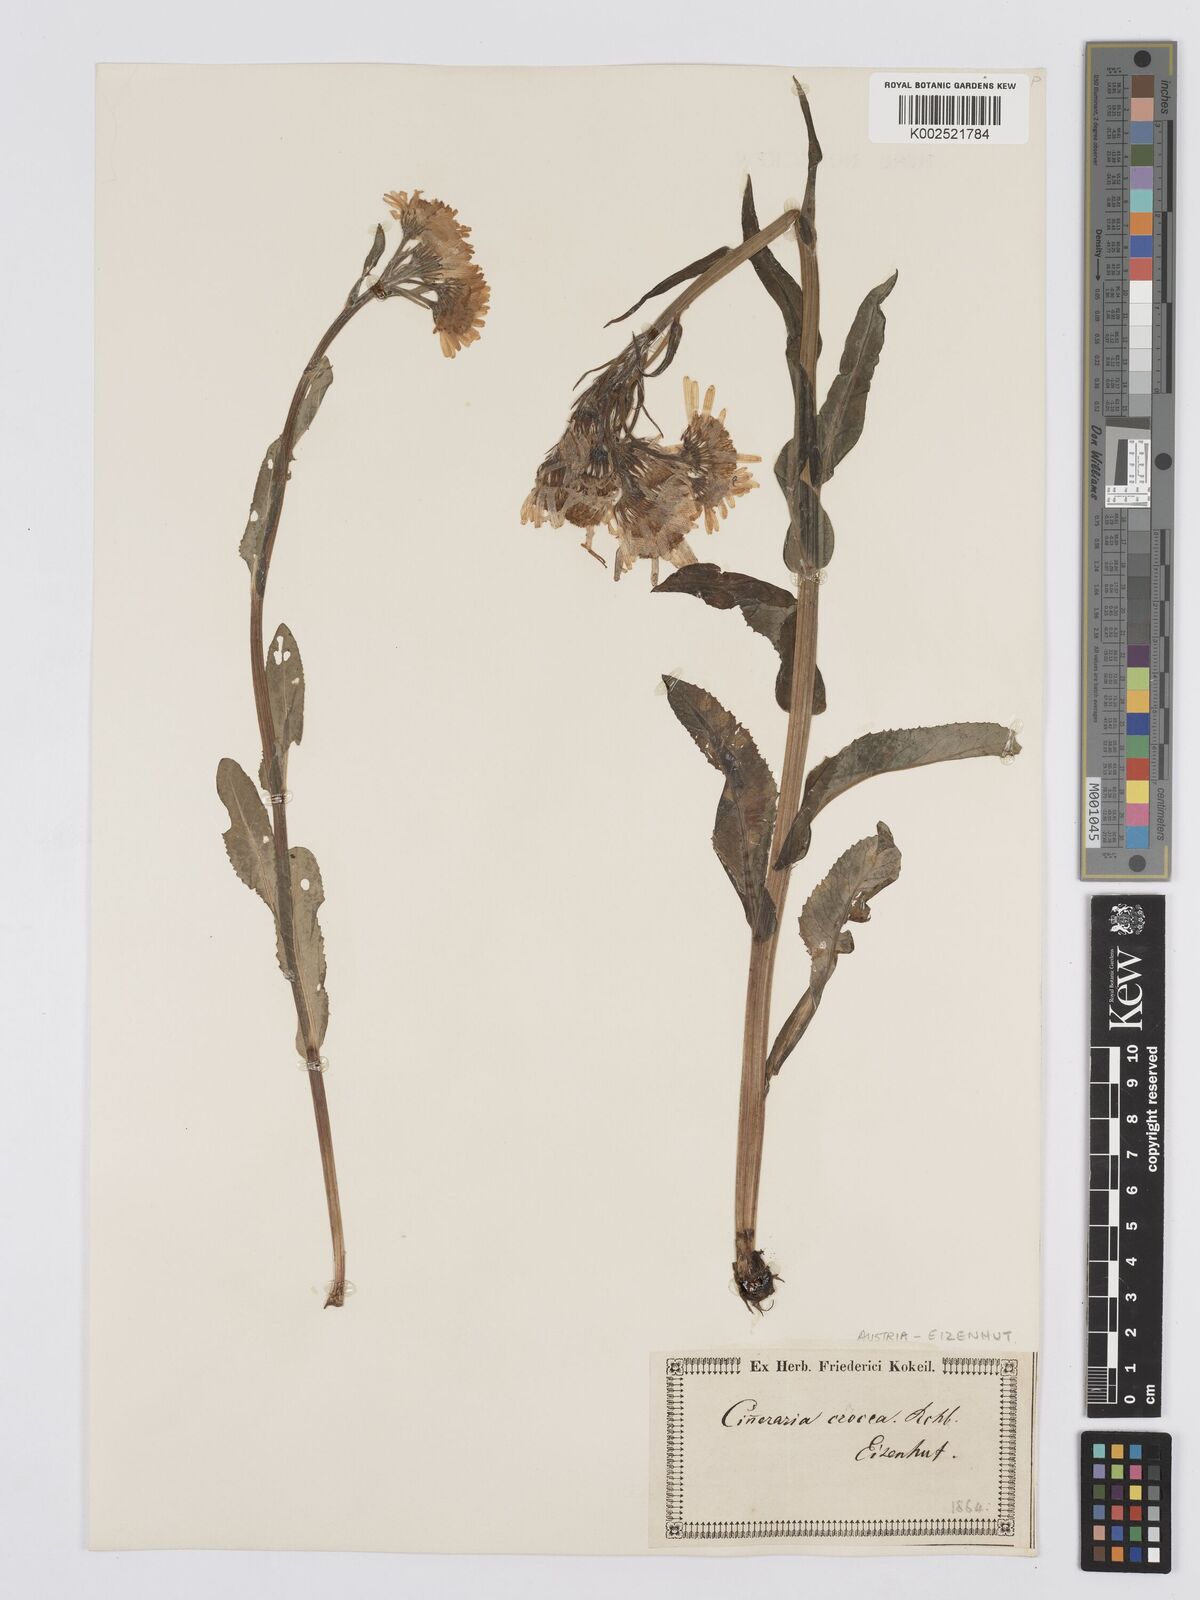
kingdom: Plantae
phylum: Tracheophyta
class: Magnoliopsida
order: Asterales
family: Asteraceae
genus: Tephroseris
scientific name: Tephroseris crispa
